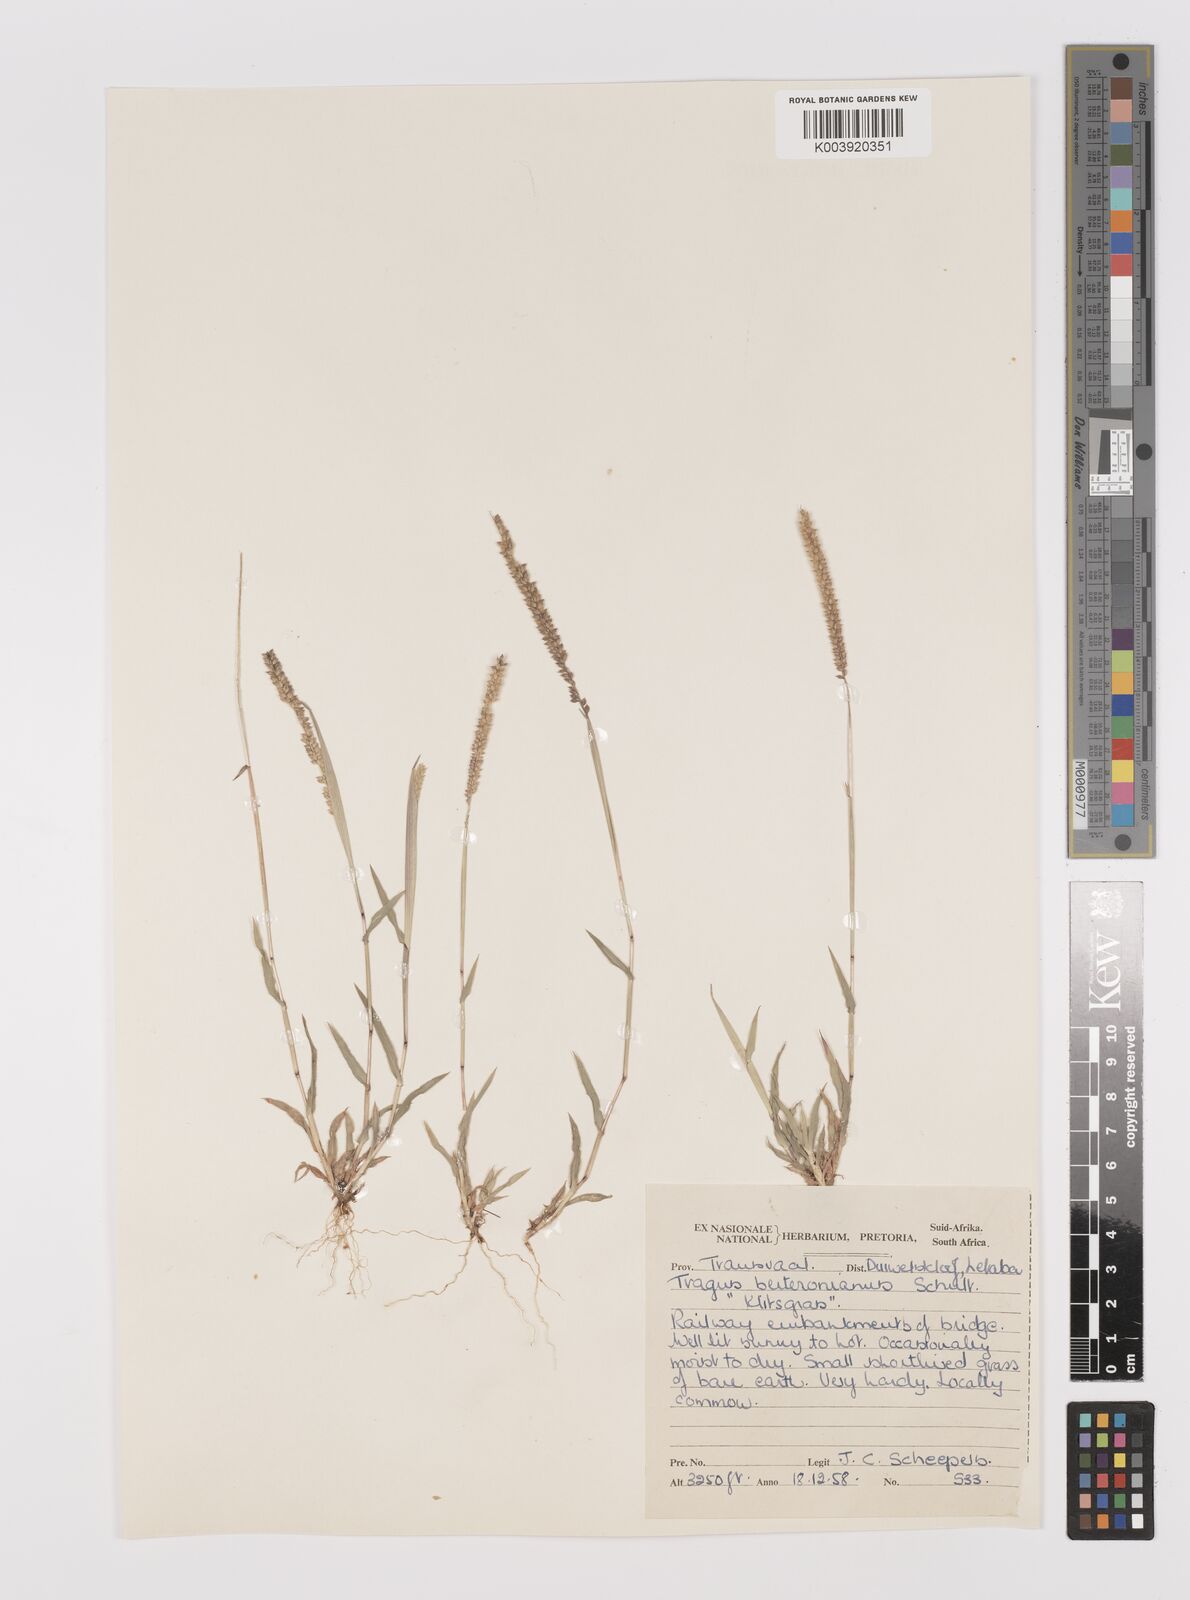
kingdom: Plantae
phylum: Tracheophyta
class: Liliopsida
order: Poales
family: Poaceae
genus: Tragus
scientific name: Tragus berteronianus
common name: African bur-grass
